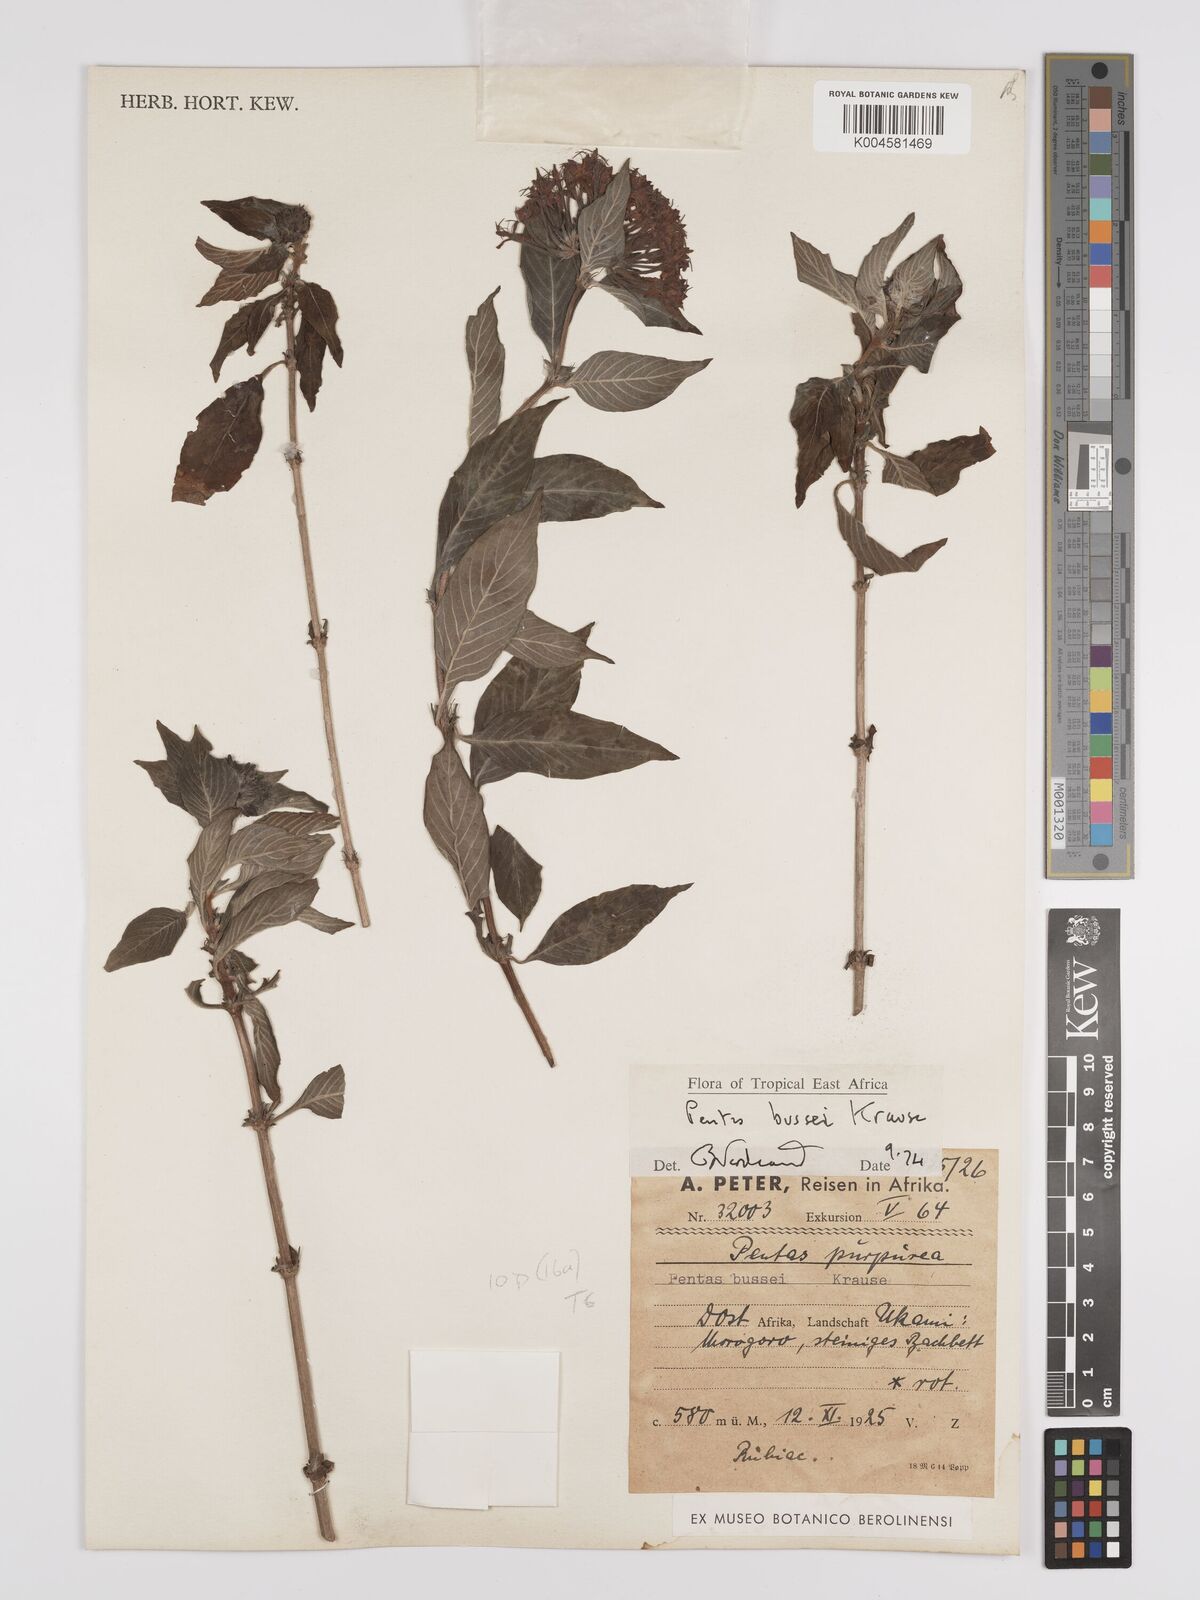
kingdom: Plantae
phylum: Tracheophyta
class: Magnoliopsida
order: Gentianales
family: Rubiaceae
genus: Rhodopentas
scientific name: Rhodopentas bussei
